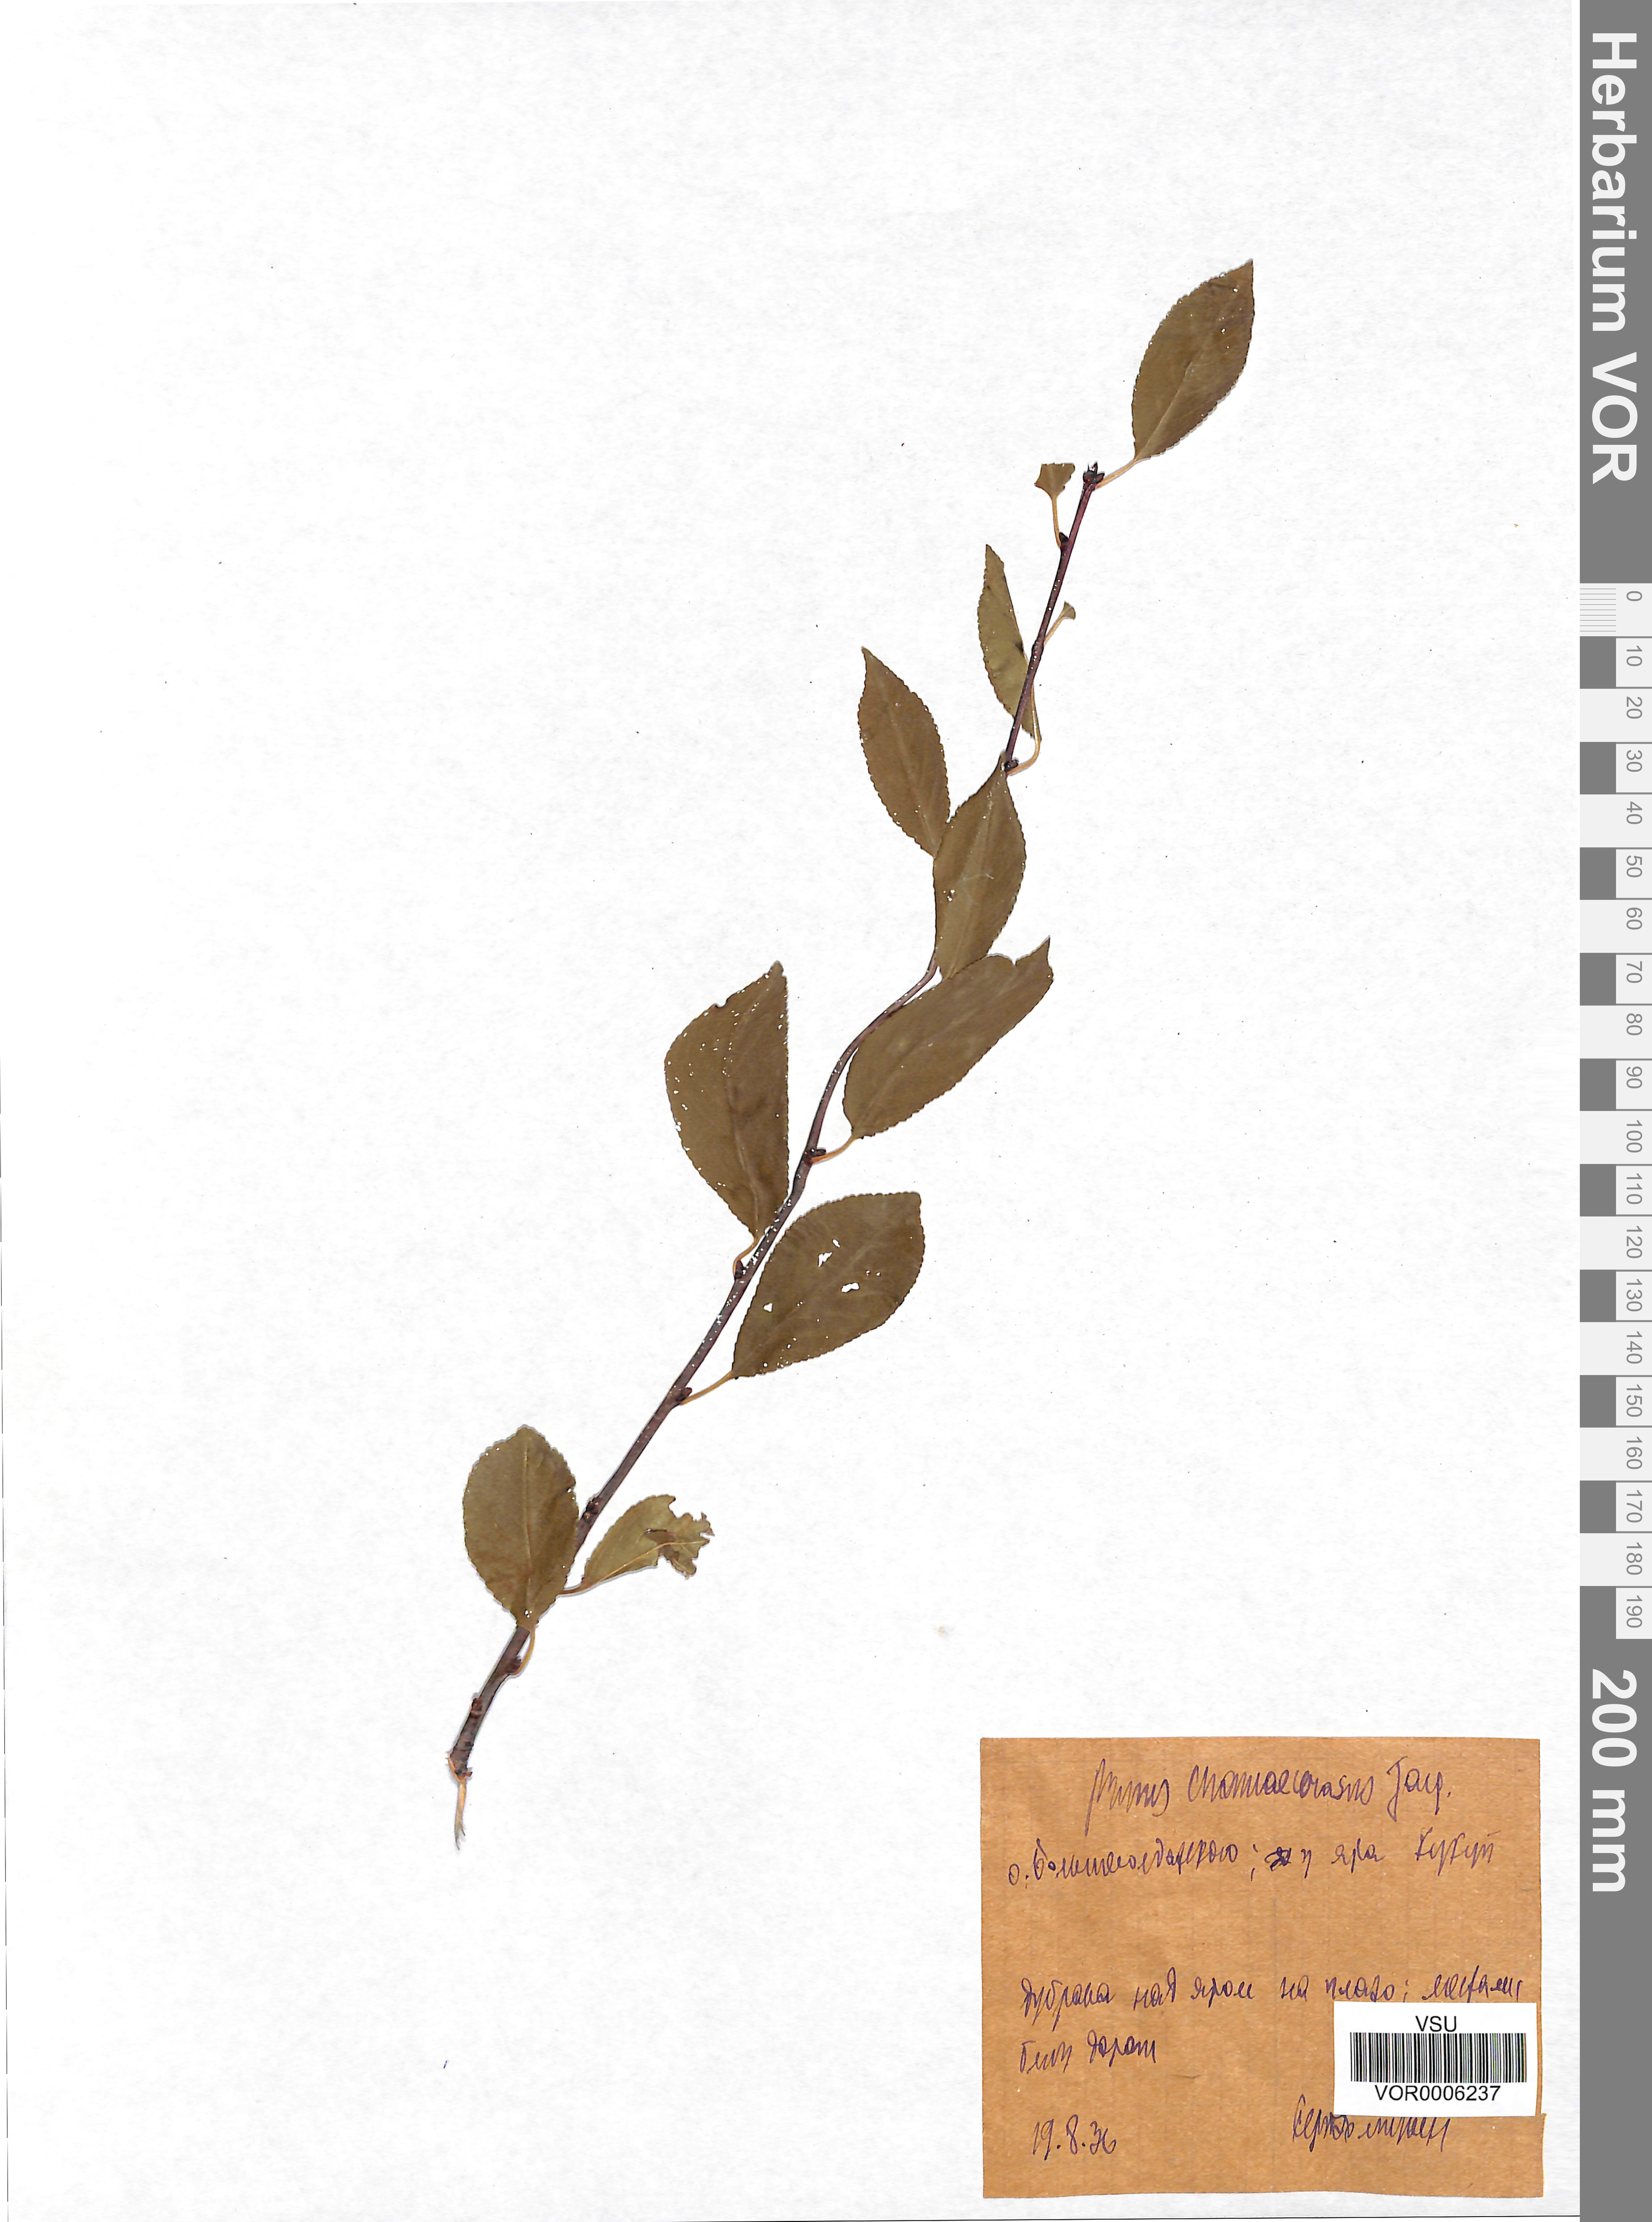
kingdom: Plantae
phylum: Tracheophyta
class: Magnoliopsida
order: Rosales
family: Rosaceae
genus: Prunus
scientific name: Prunus fruticosa
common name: European dwarf cherry
